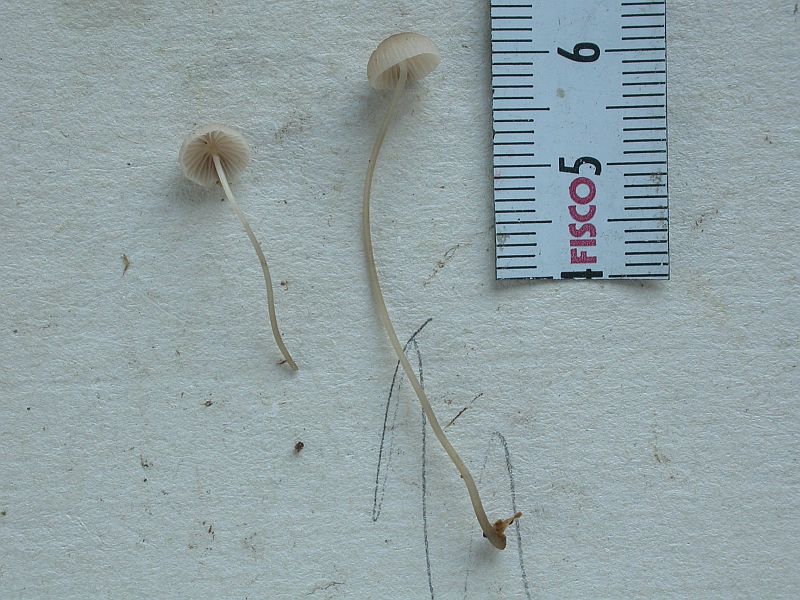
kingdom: Fungi
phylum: Basidiomycota
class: Agaricomycetes
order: Agaricales
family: Mycenaceae
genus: Mycena
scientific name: Mycena filopes
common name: jod-huesvamp
